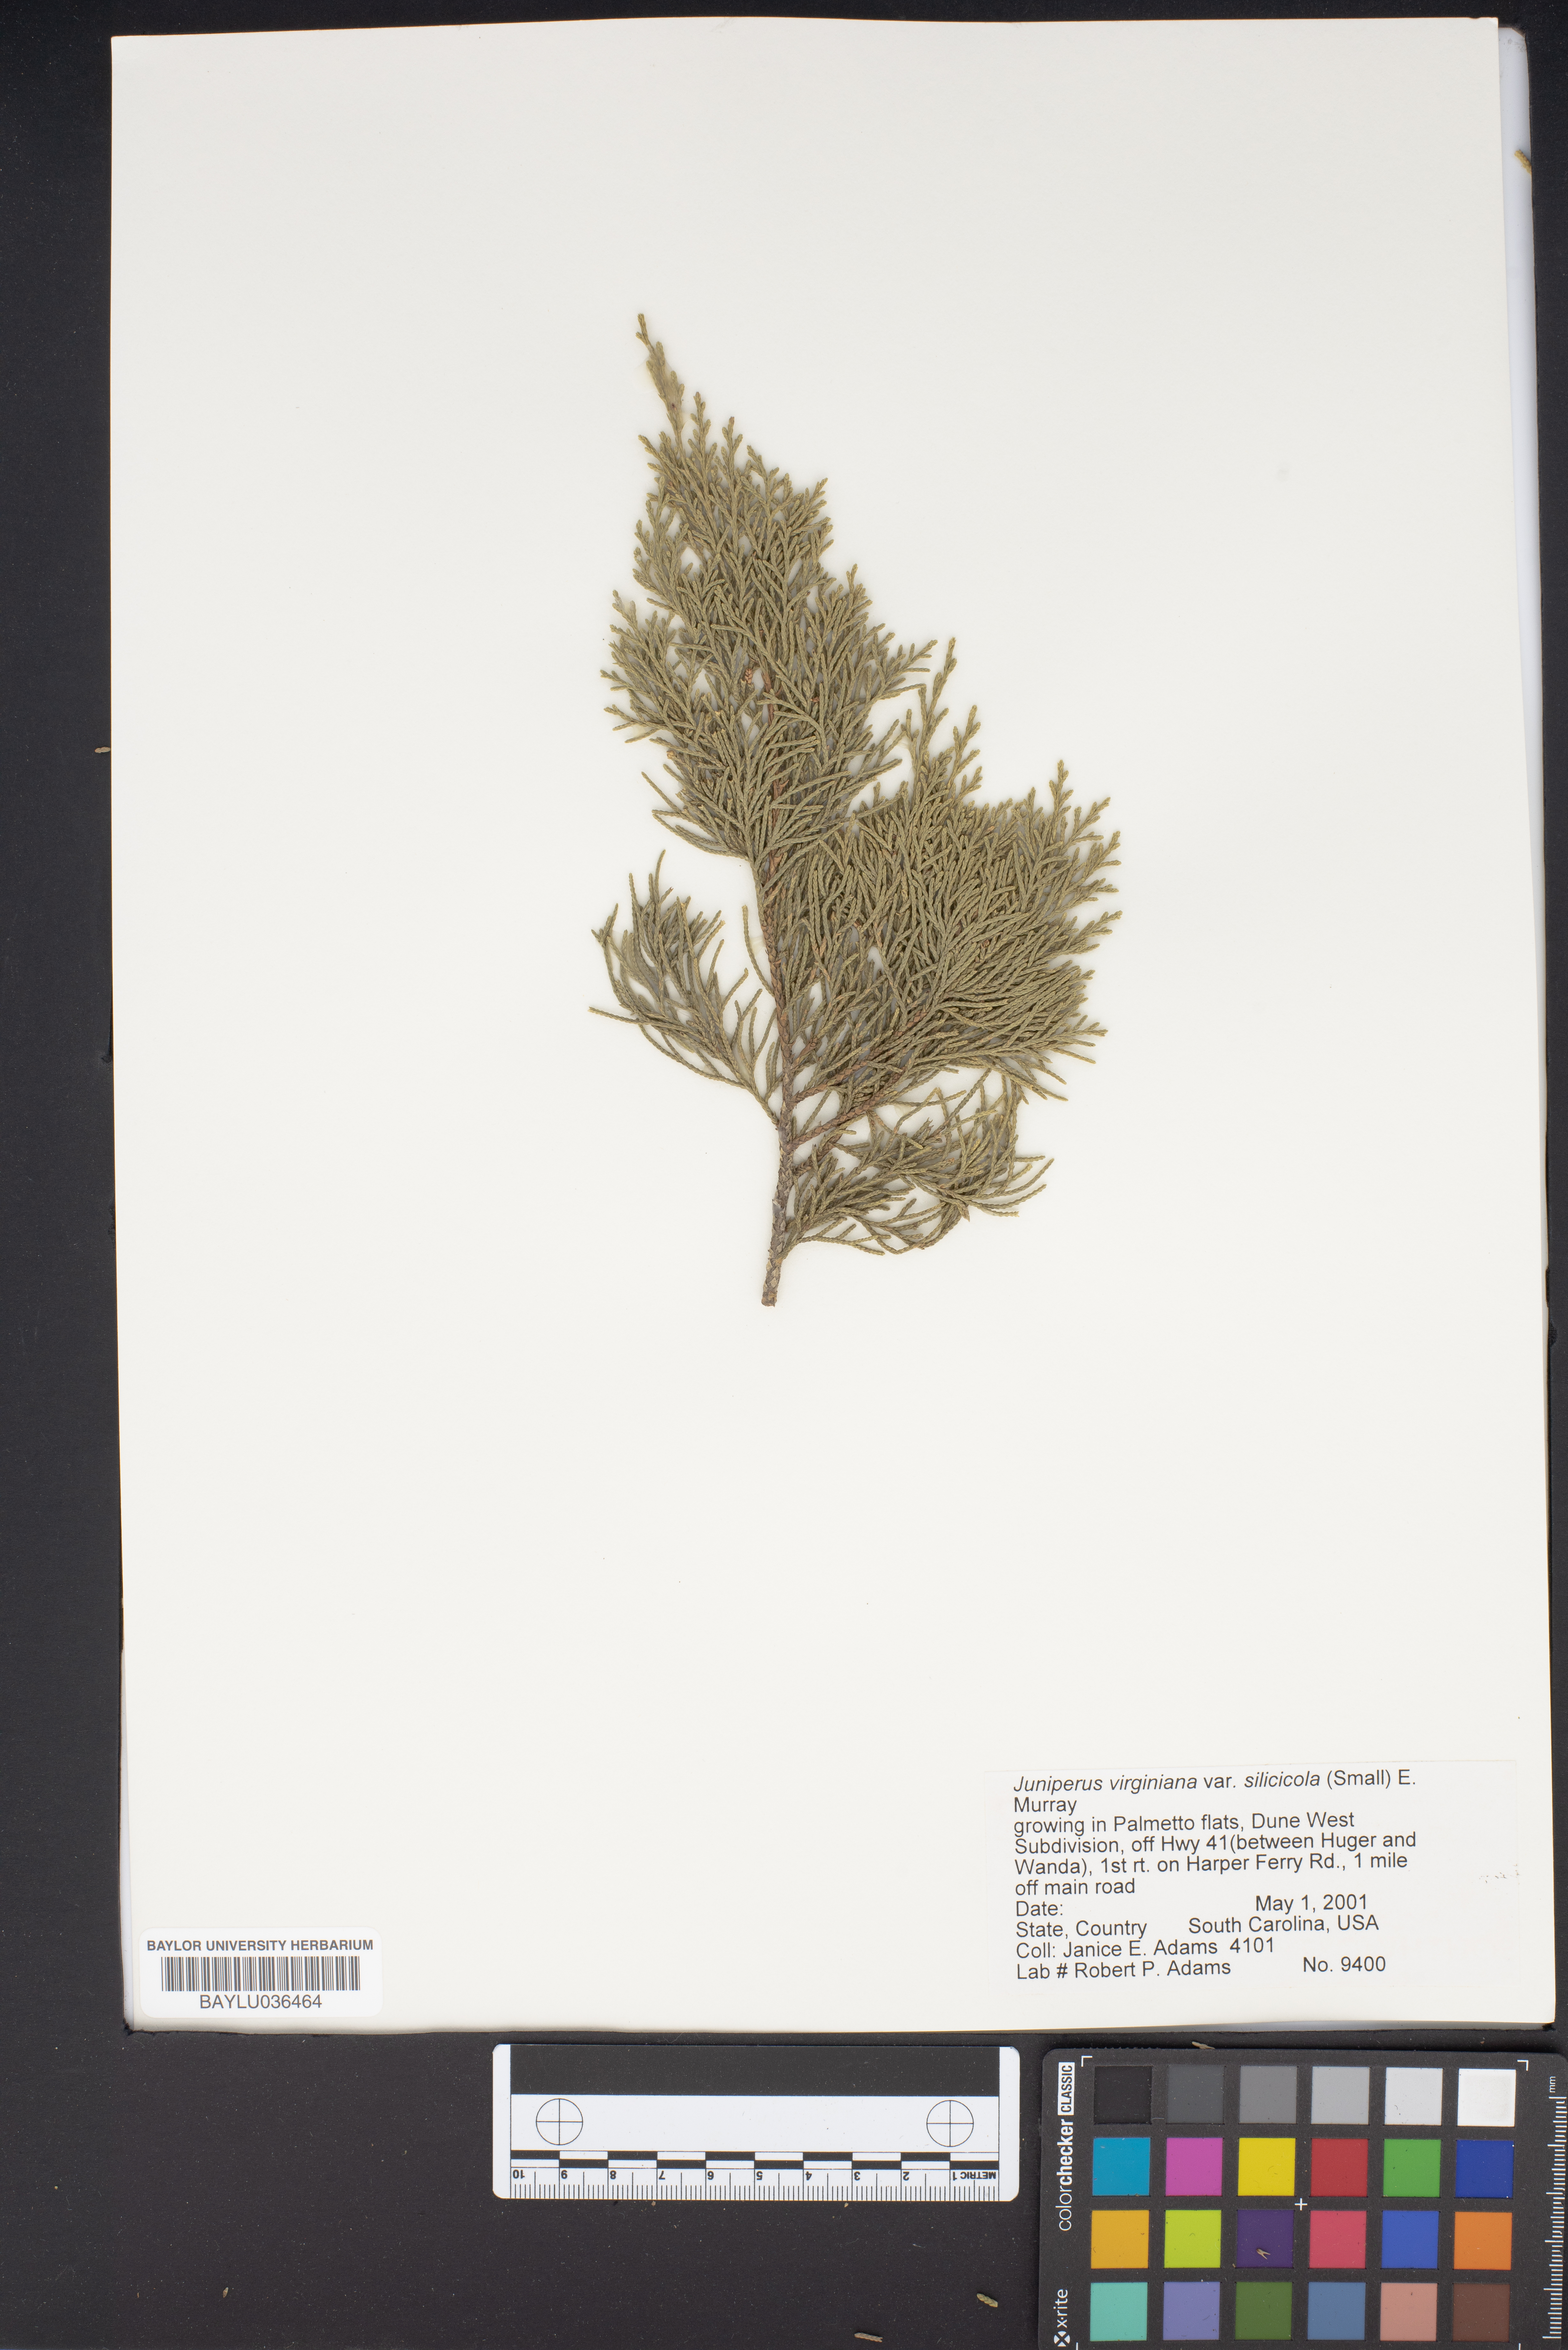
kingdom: Plantae
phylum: Tracheophyta
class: Pinopsida
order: Pinales
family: Cupressaceae
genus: Juniperus
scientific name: Juniperus virginiana
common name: Red juniper
